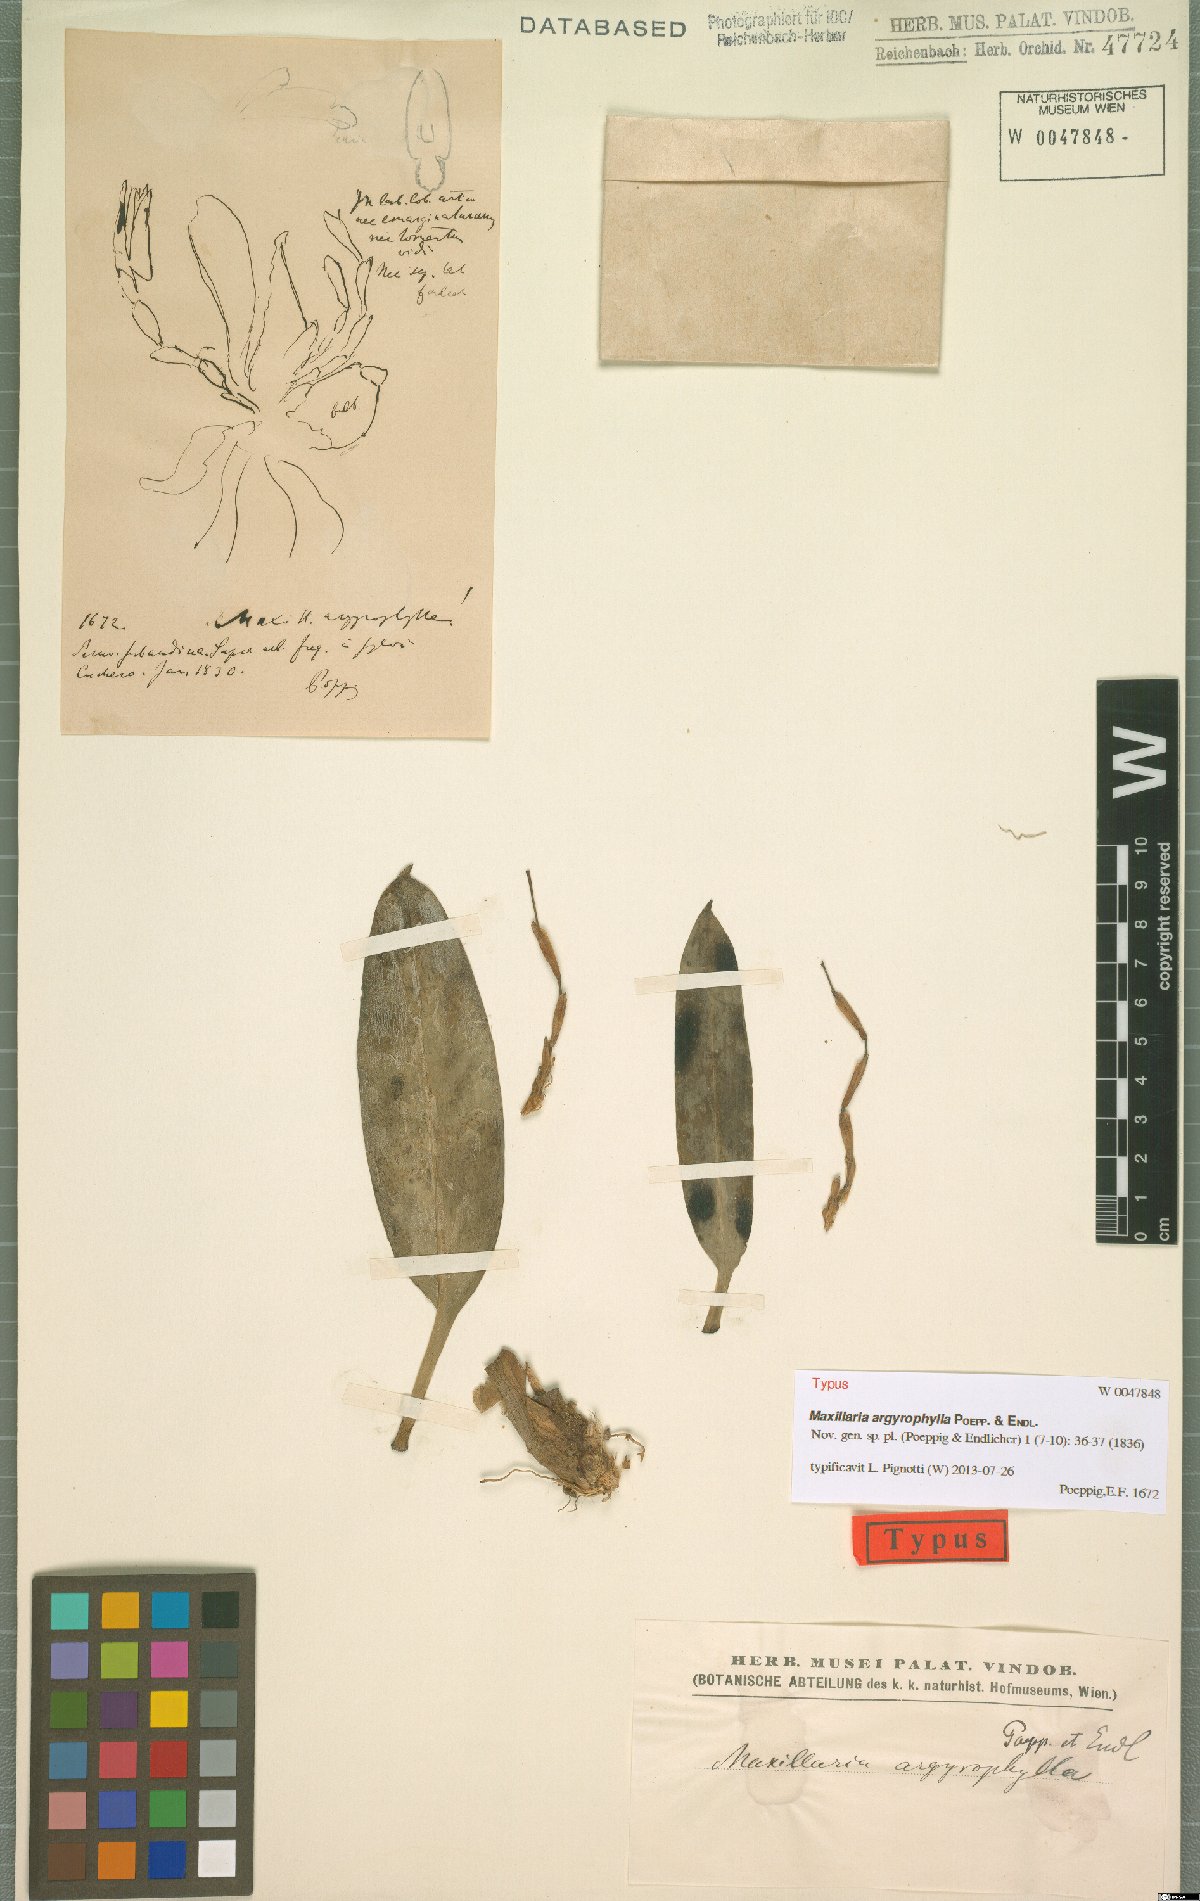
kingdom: Plantae
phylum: Tracheophyta
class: Liliopsida
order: Asparagales
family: Orchidaceae
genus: Maxillaria
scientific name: Maxillaria argyrophylla
